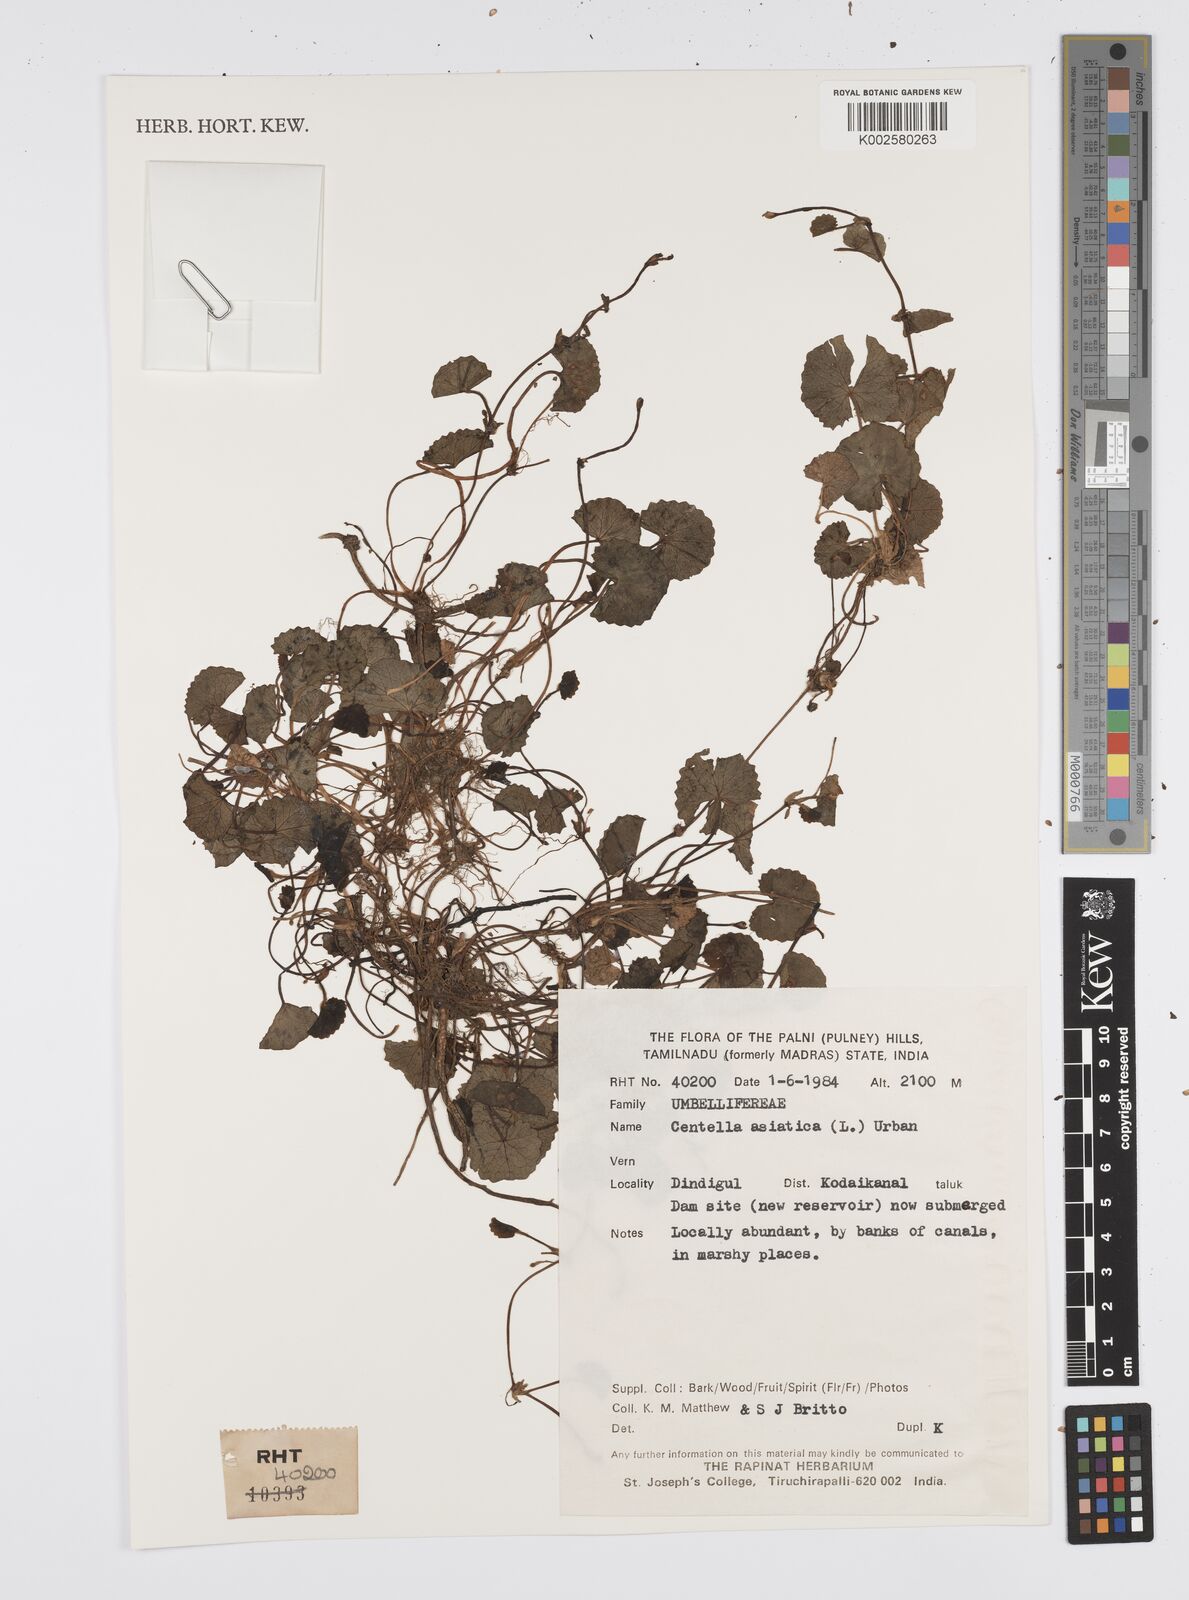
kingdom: Plantae
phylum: Tracheophyta
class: Magnoliopsida
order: Apiales
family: Apiaceae
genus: Centella
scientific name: Centella asiatica
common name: Spadeleaf
